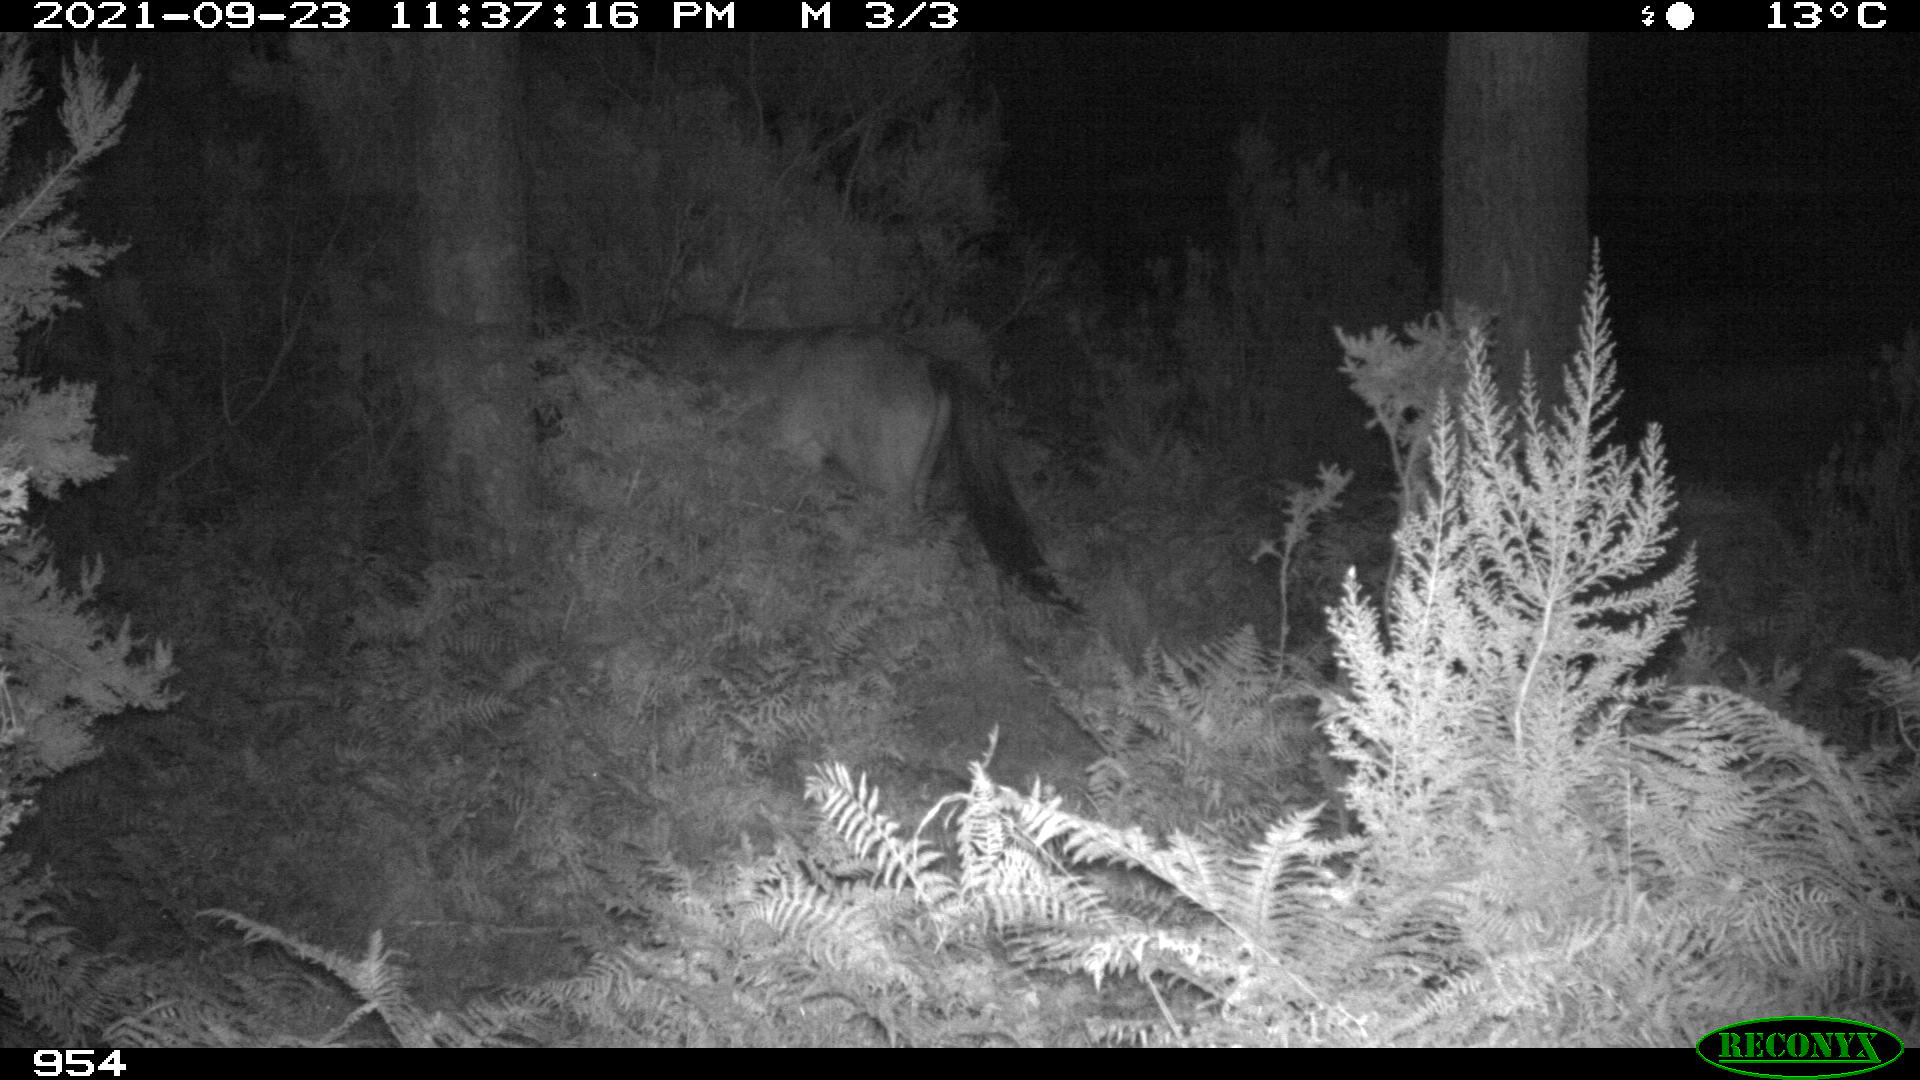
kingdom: Animalia
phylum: Chordata
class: Mammalia
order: Perissodactyla
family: Equidae
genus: Equus
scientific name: Equus caballus
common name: Horse
